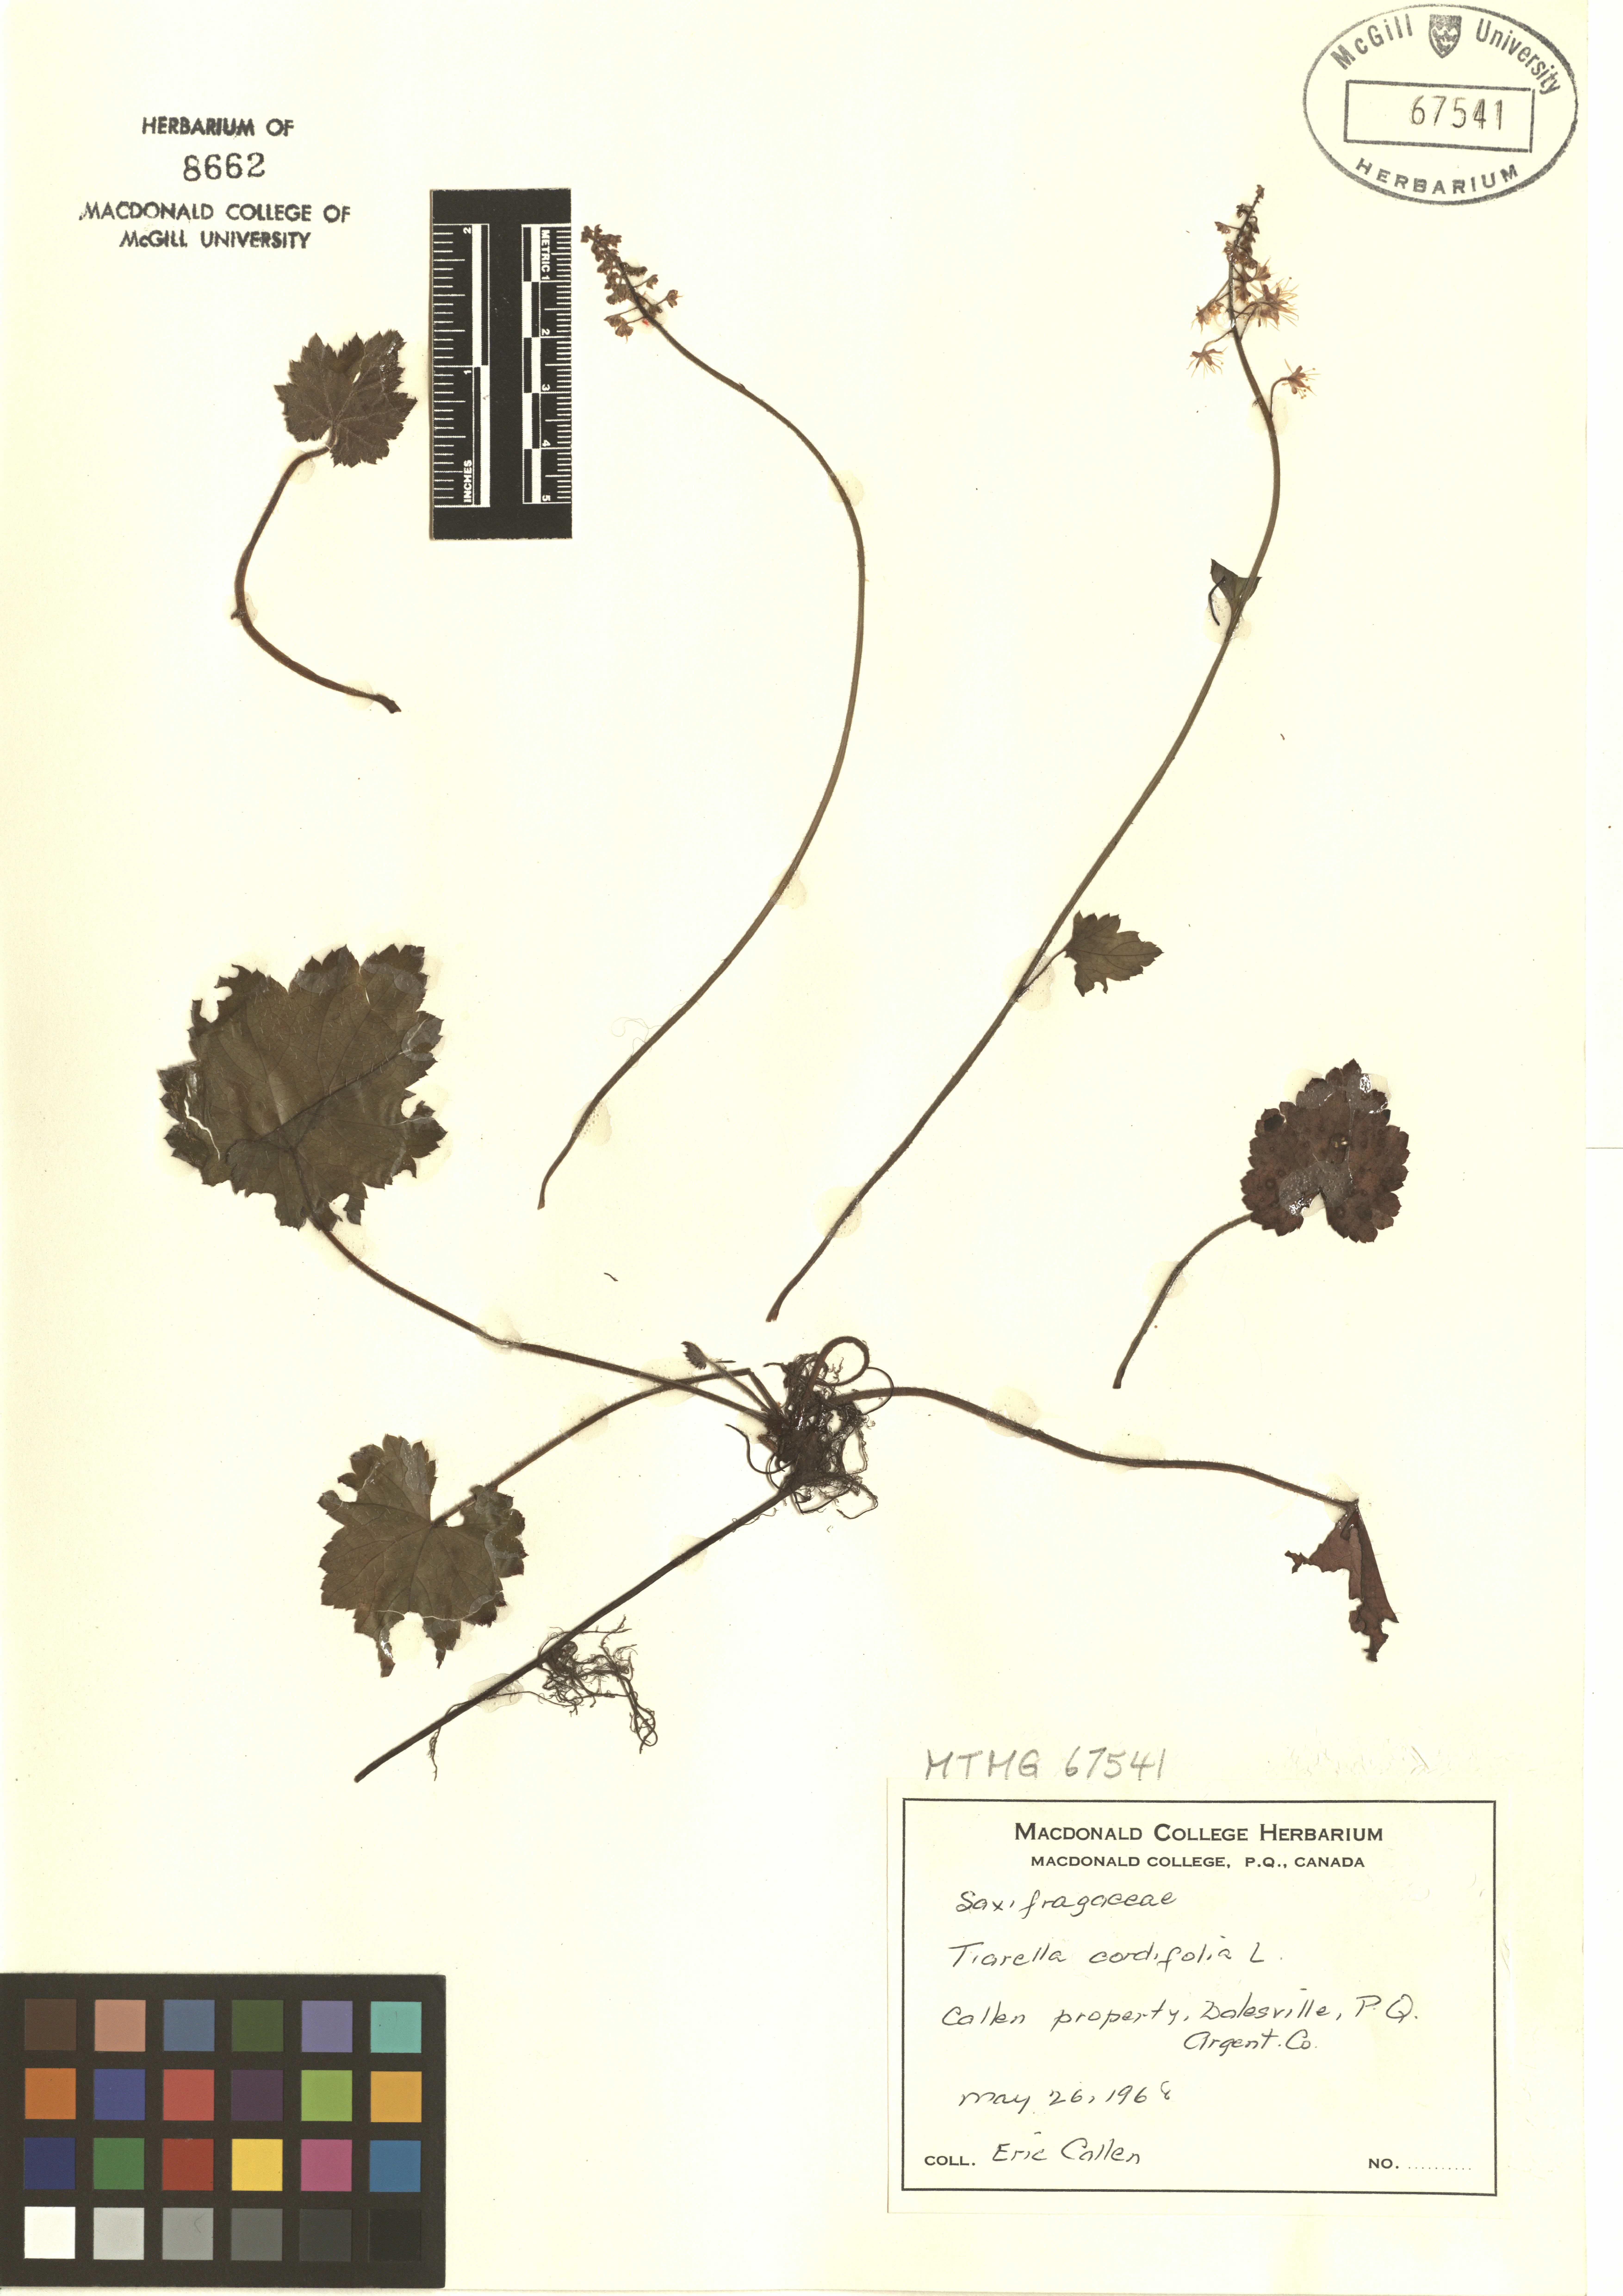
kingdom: Plantae
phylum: Tracheophyta
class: Magnoliopsida
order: Saxifragales
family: Saxifragaceae
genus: Tiarella
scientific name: Tiarella cordifolia
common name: Foamflower
